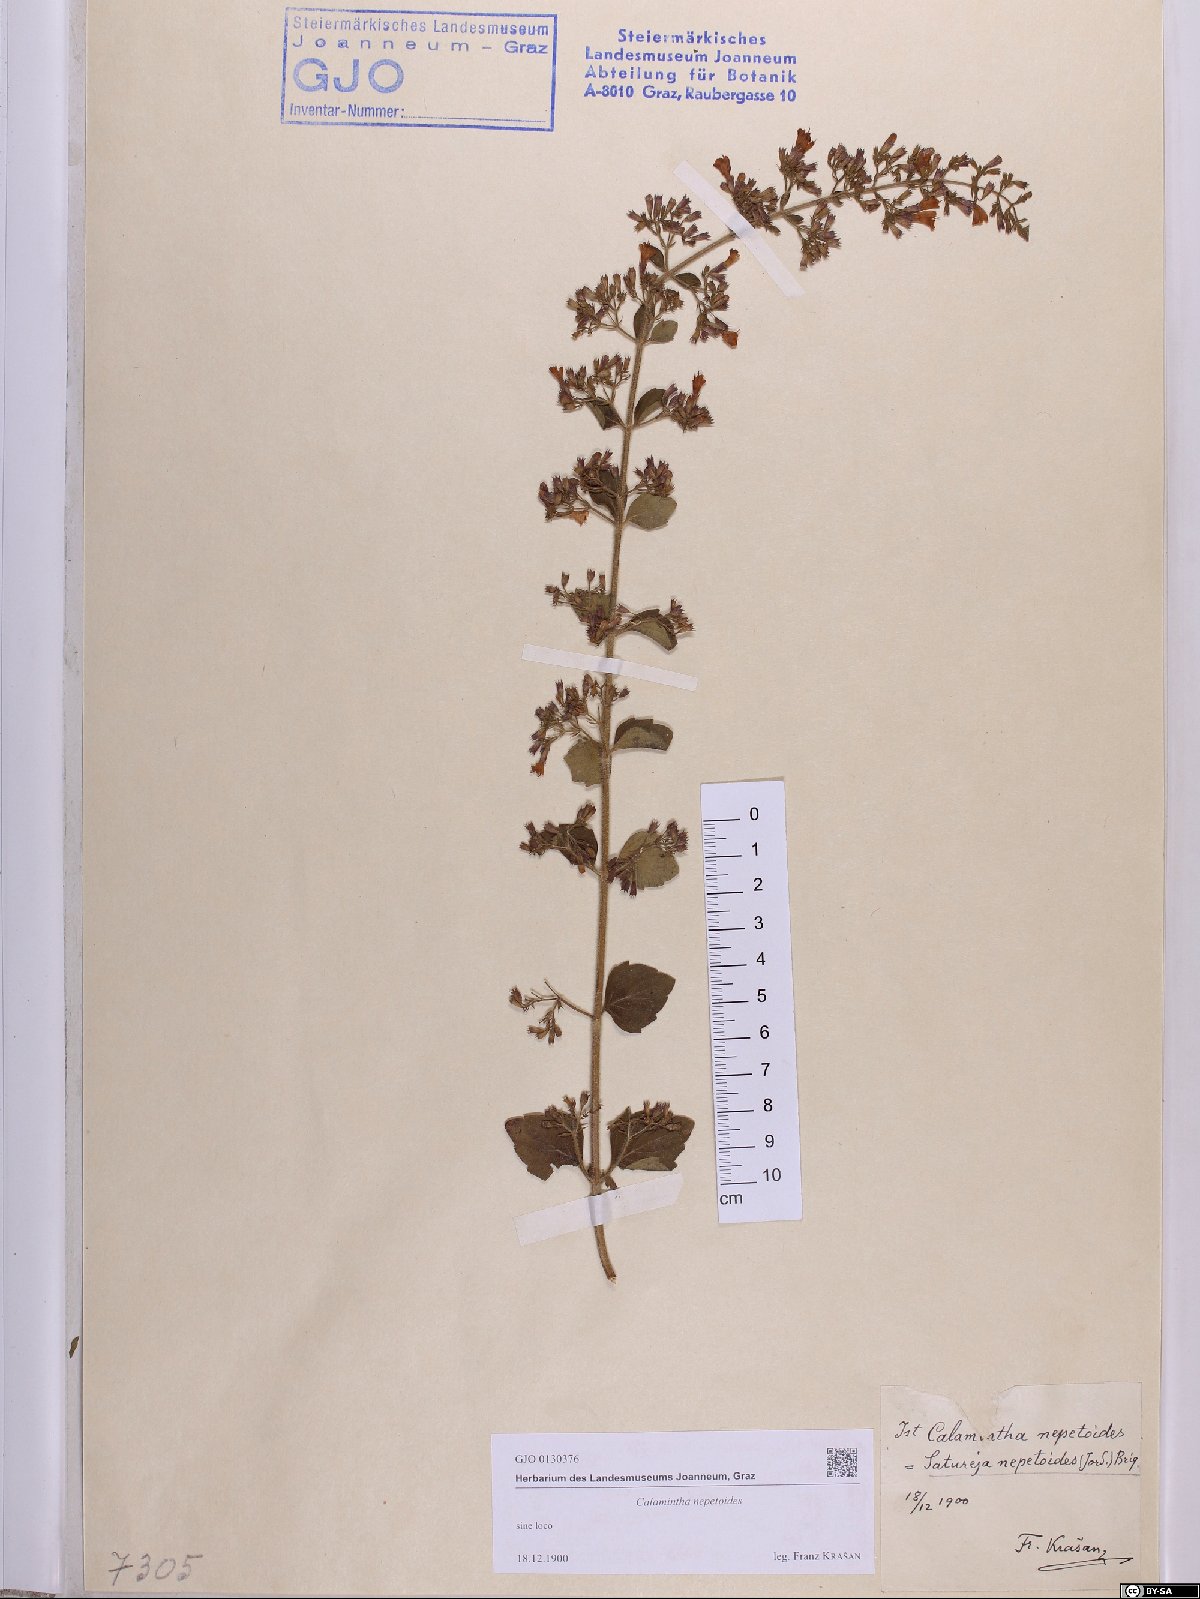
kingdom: Plantae
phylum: Tracheophyta
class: Magnoliopsida
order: Lamiales
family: Lamiaceae
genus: Clinopodium
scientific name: Clinopodium nepeta
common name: Lesser calamint
